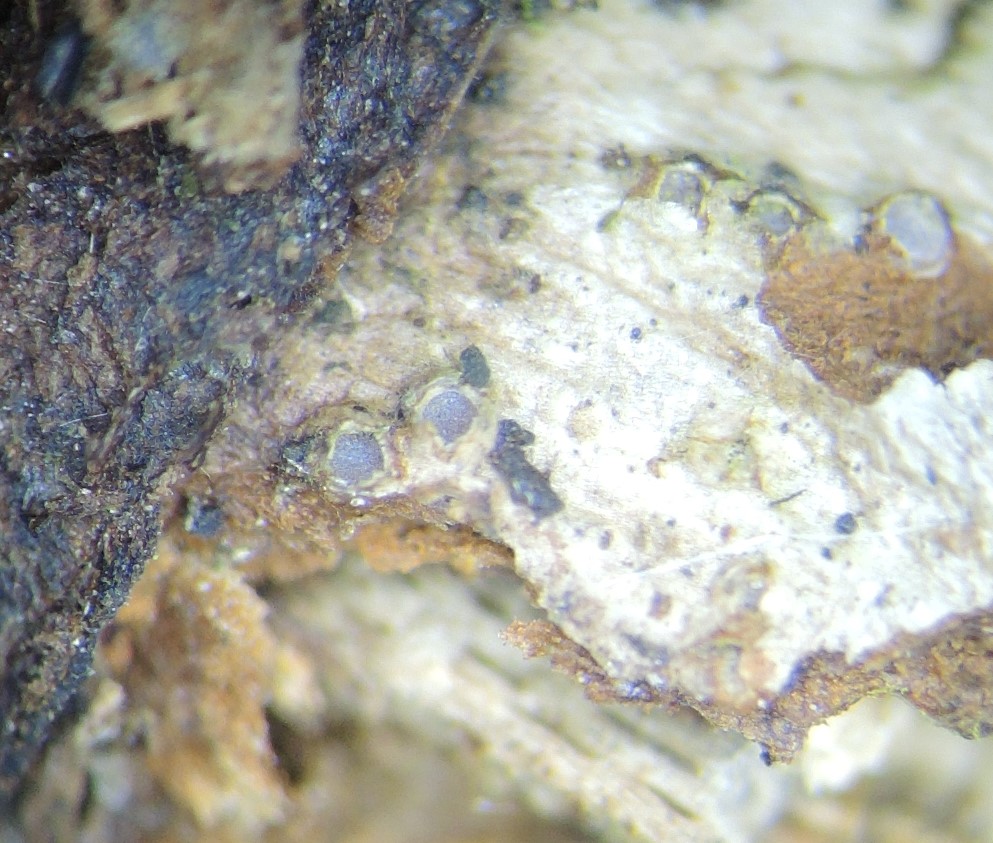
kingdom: Fungi
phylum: Ascomycota
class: Lecanoromycetes
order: Ostropales
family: Stictidaceae
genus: Karstenia
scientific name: Karstenia rhopaloides
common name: grårosa barkhul
